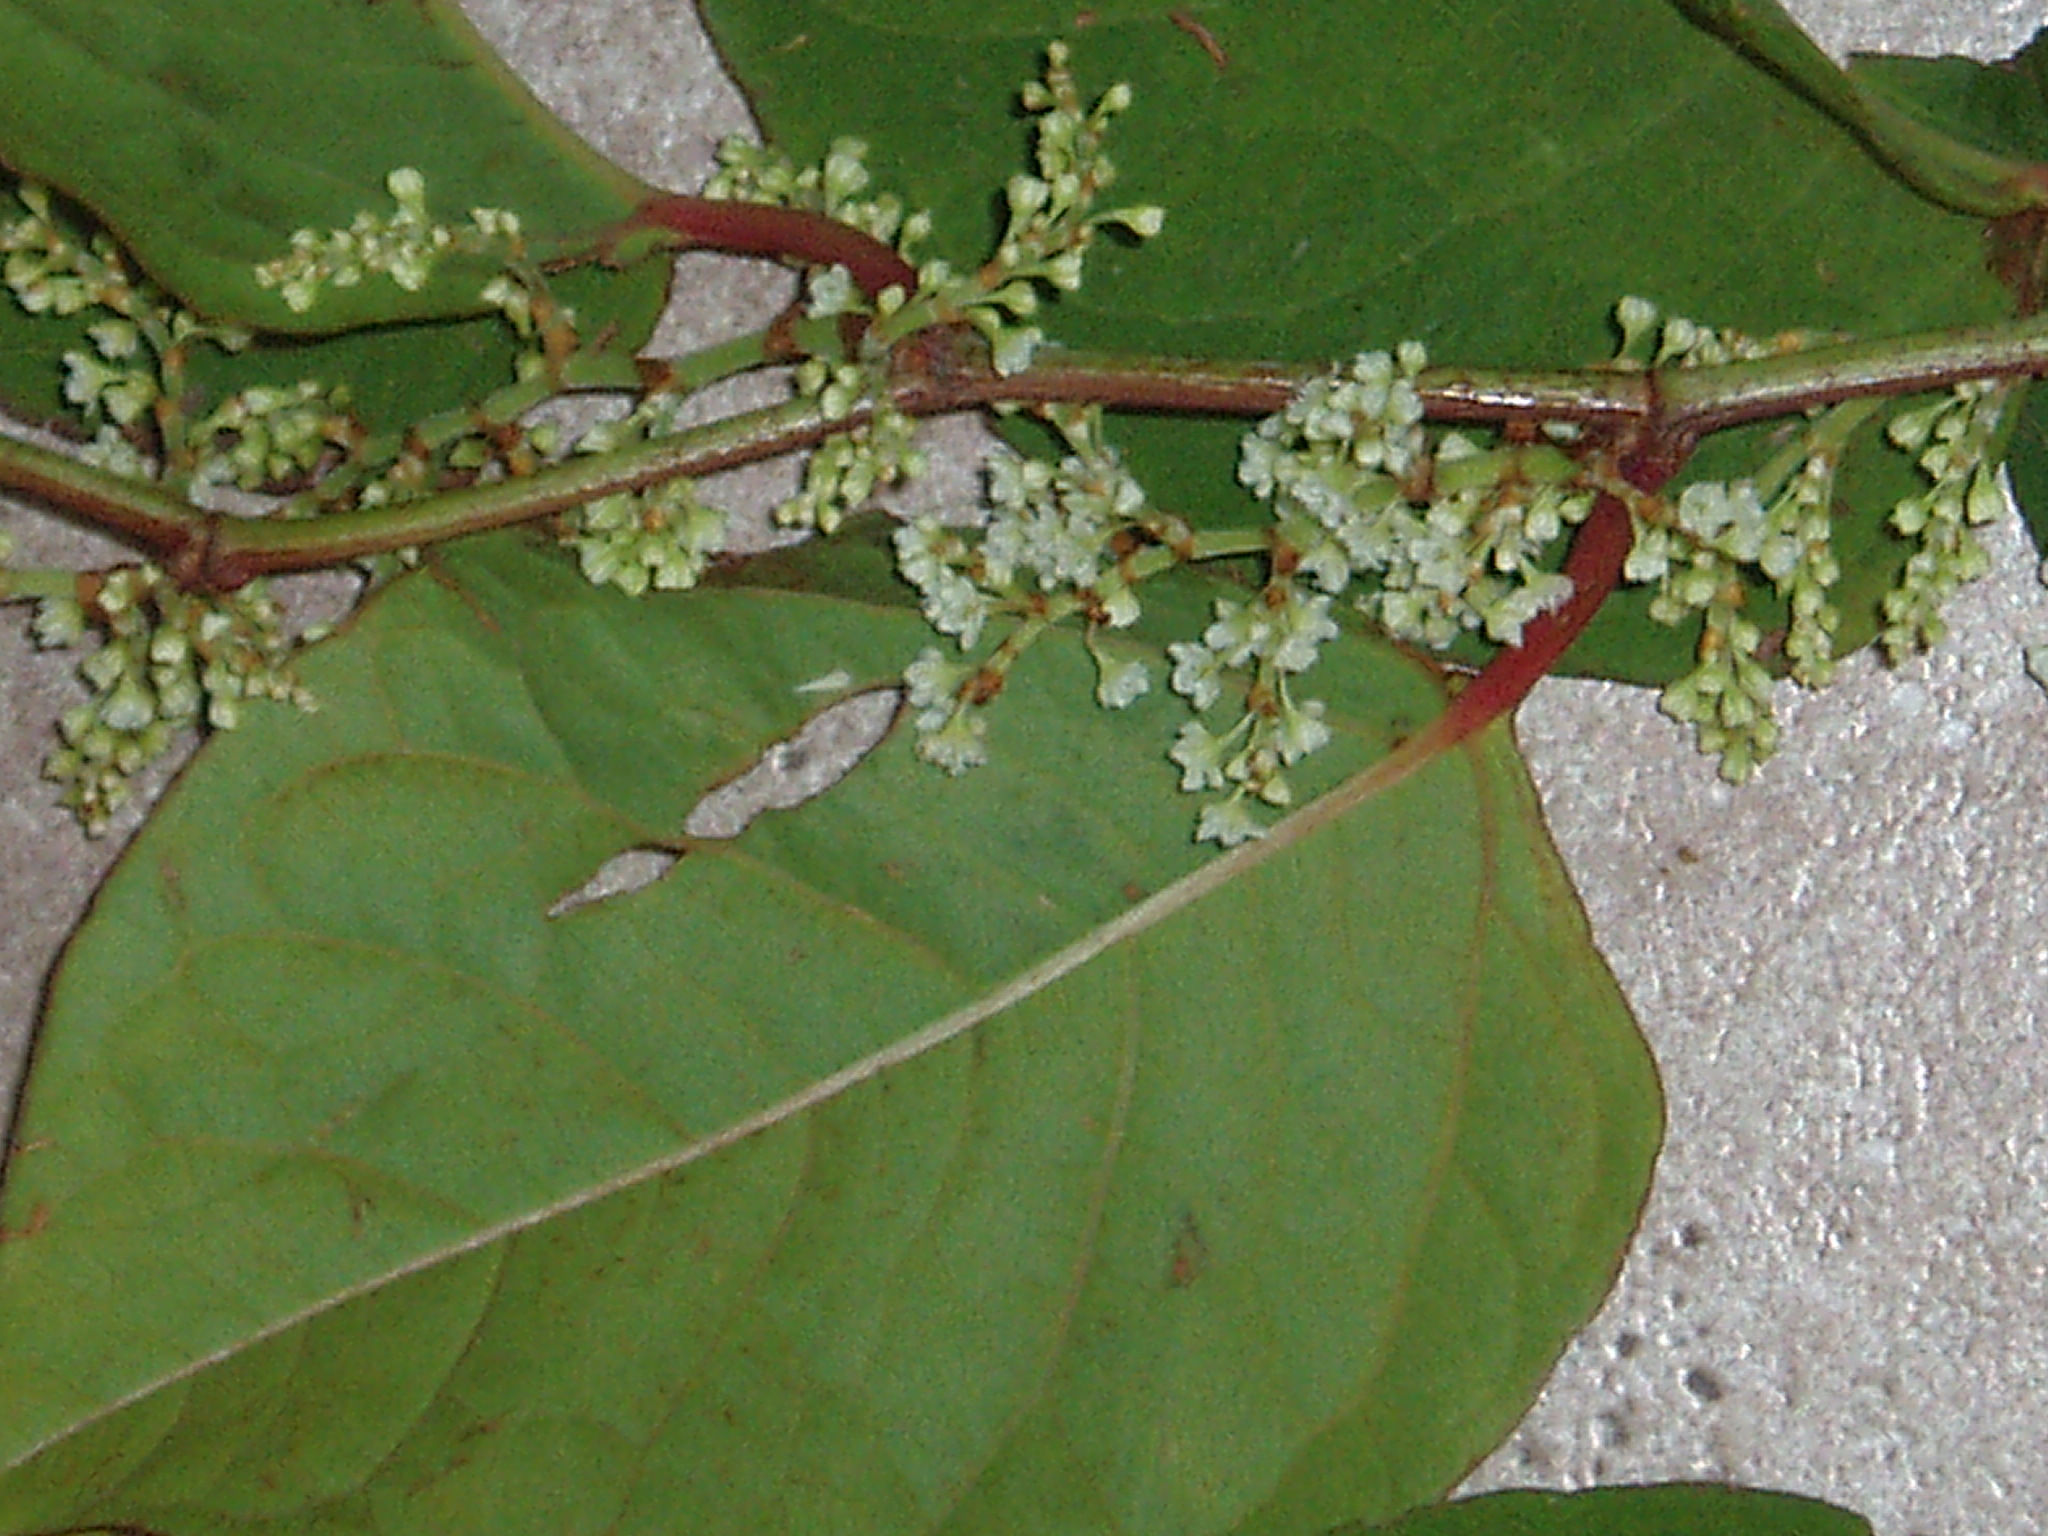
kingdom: Plantae
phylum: Tracheophyta
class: Magnoliopsida
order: Caryophyllales
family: Polygonaceae
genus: Reynoutria
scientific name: Reynoutria japonica
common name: Japanese knotweed
